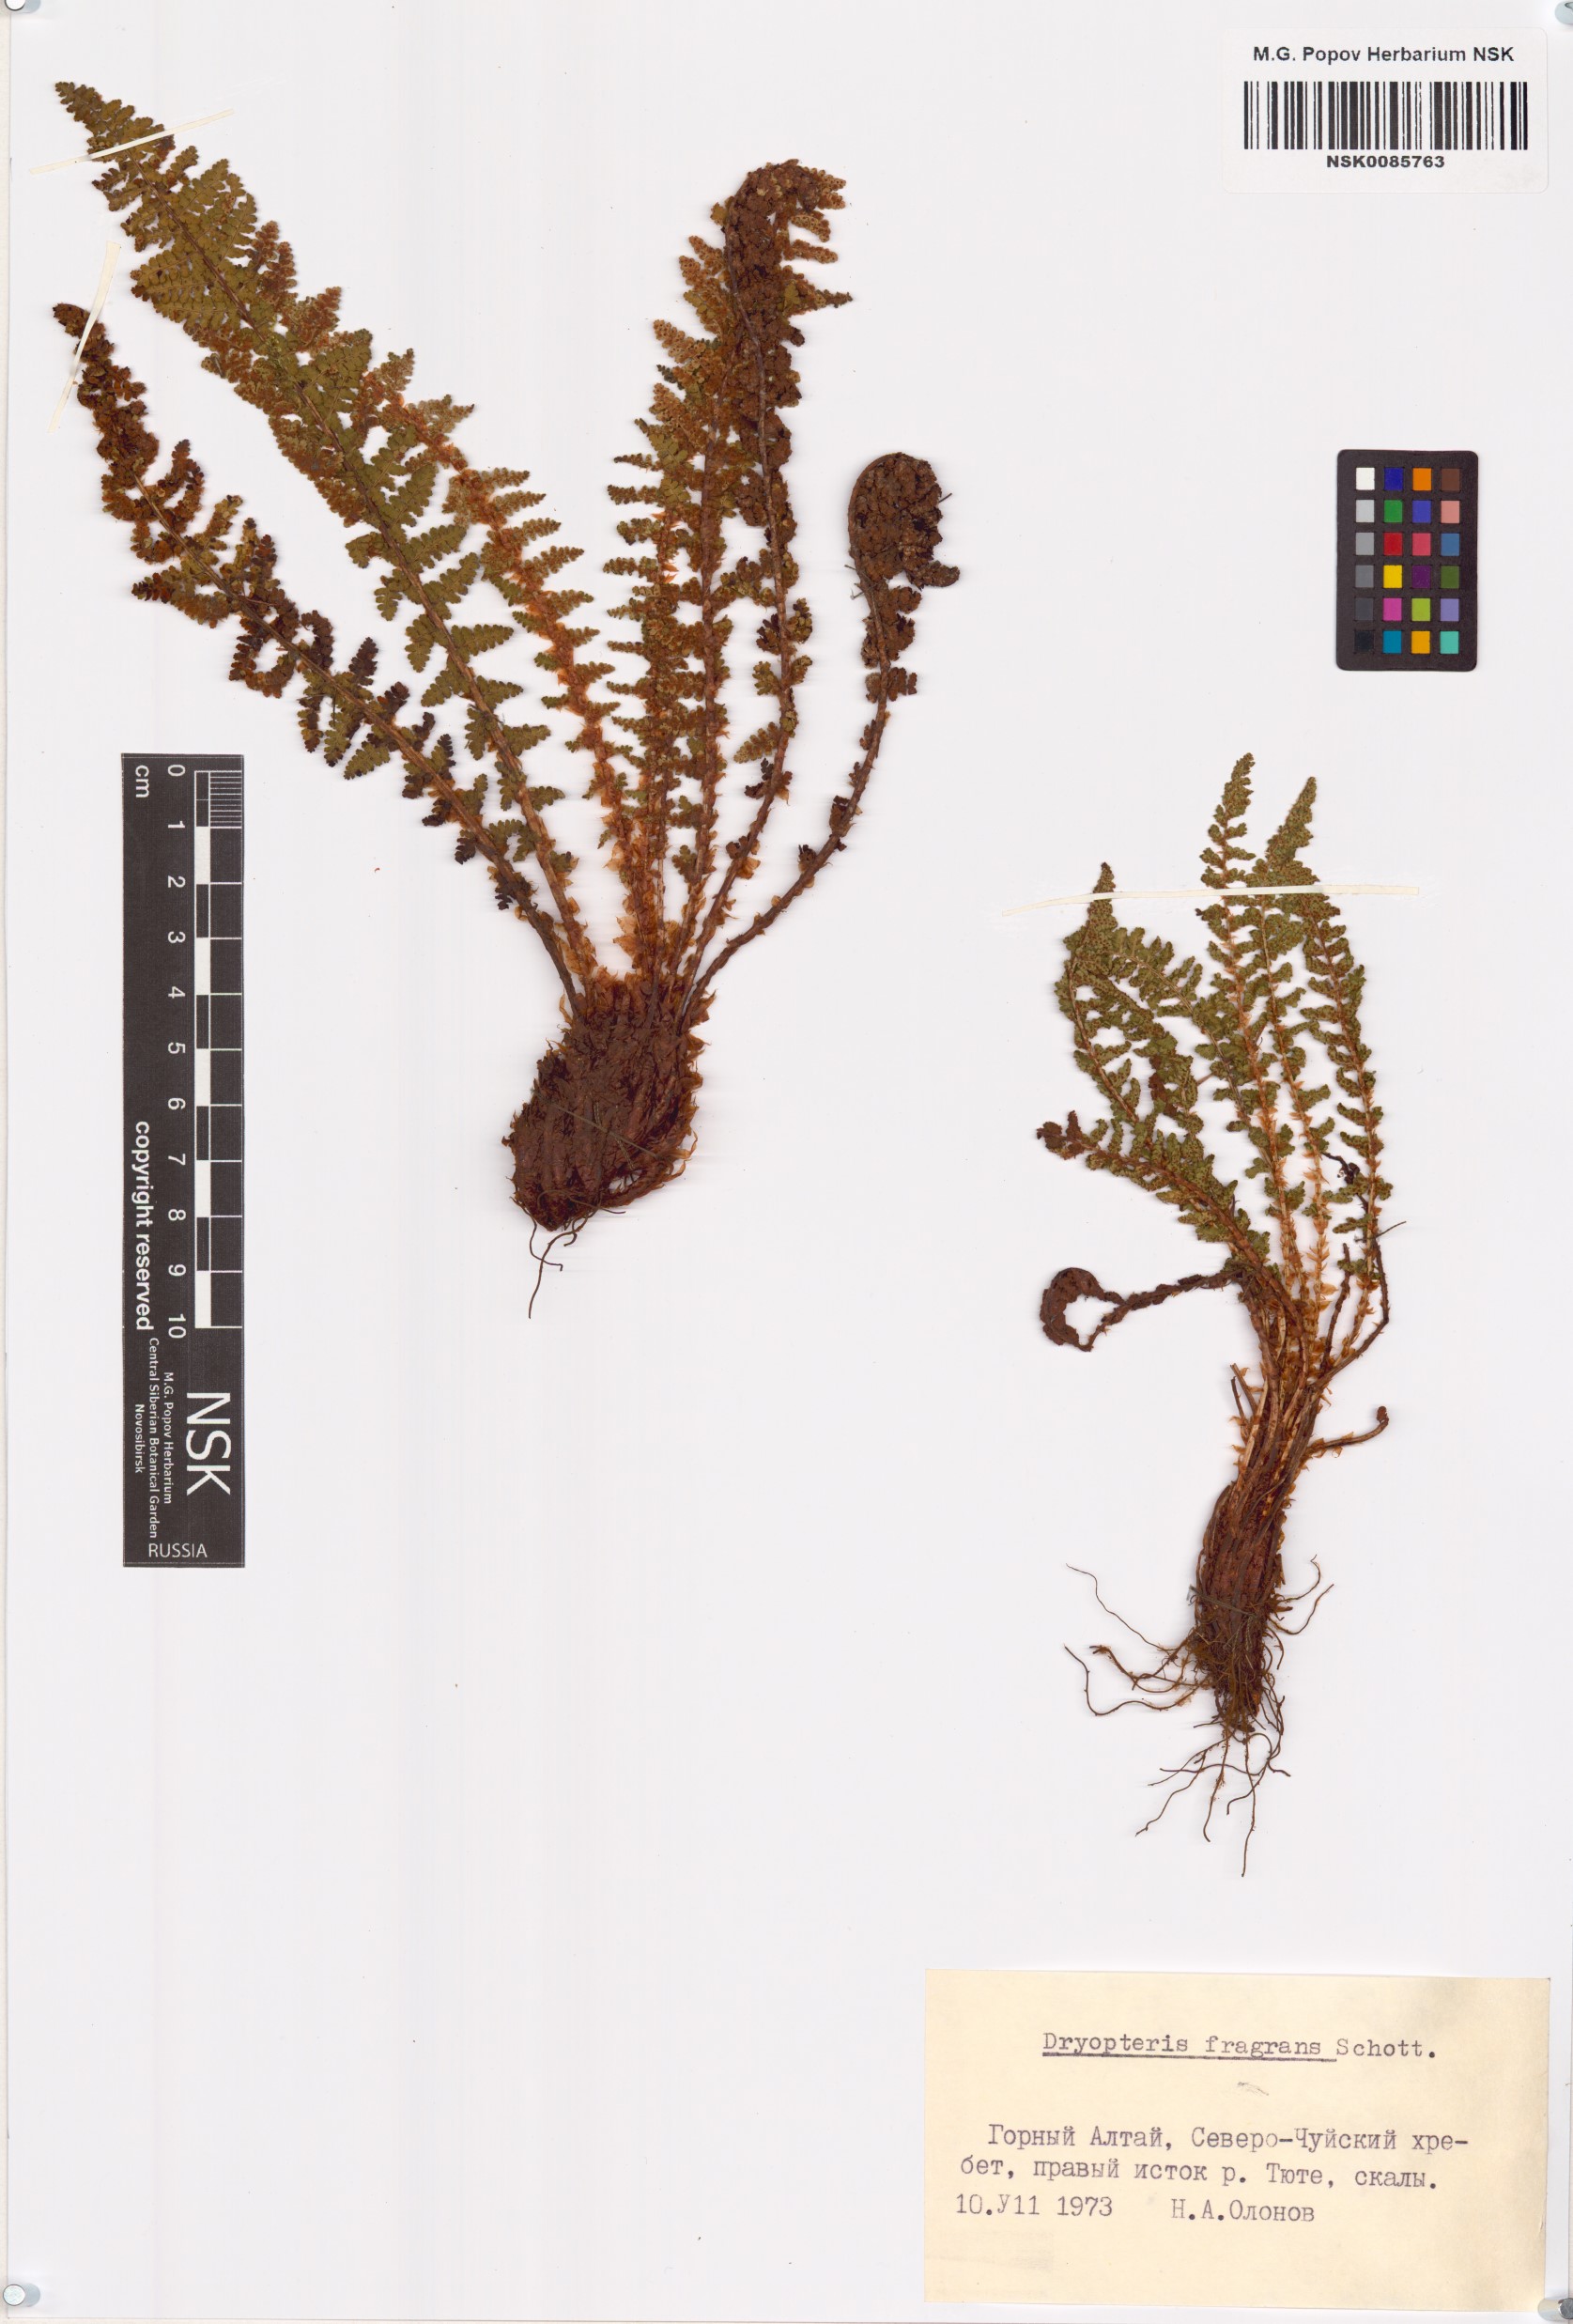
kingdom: Plantae
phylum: Tracheophyta
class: Polypodiopsida
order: Polypodiales
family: Dryopteridaceae
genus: Dryopteris
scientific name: Dryopteris fragrans
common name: Fragrant wood fern
